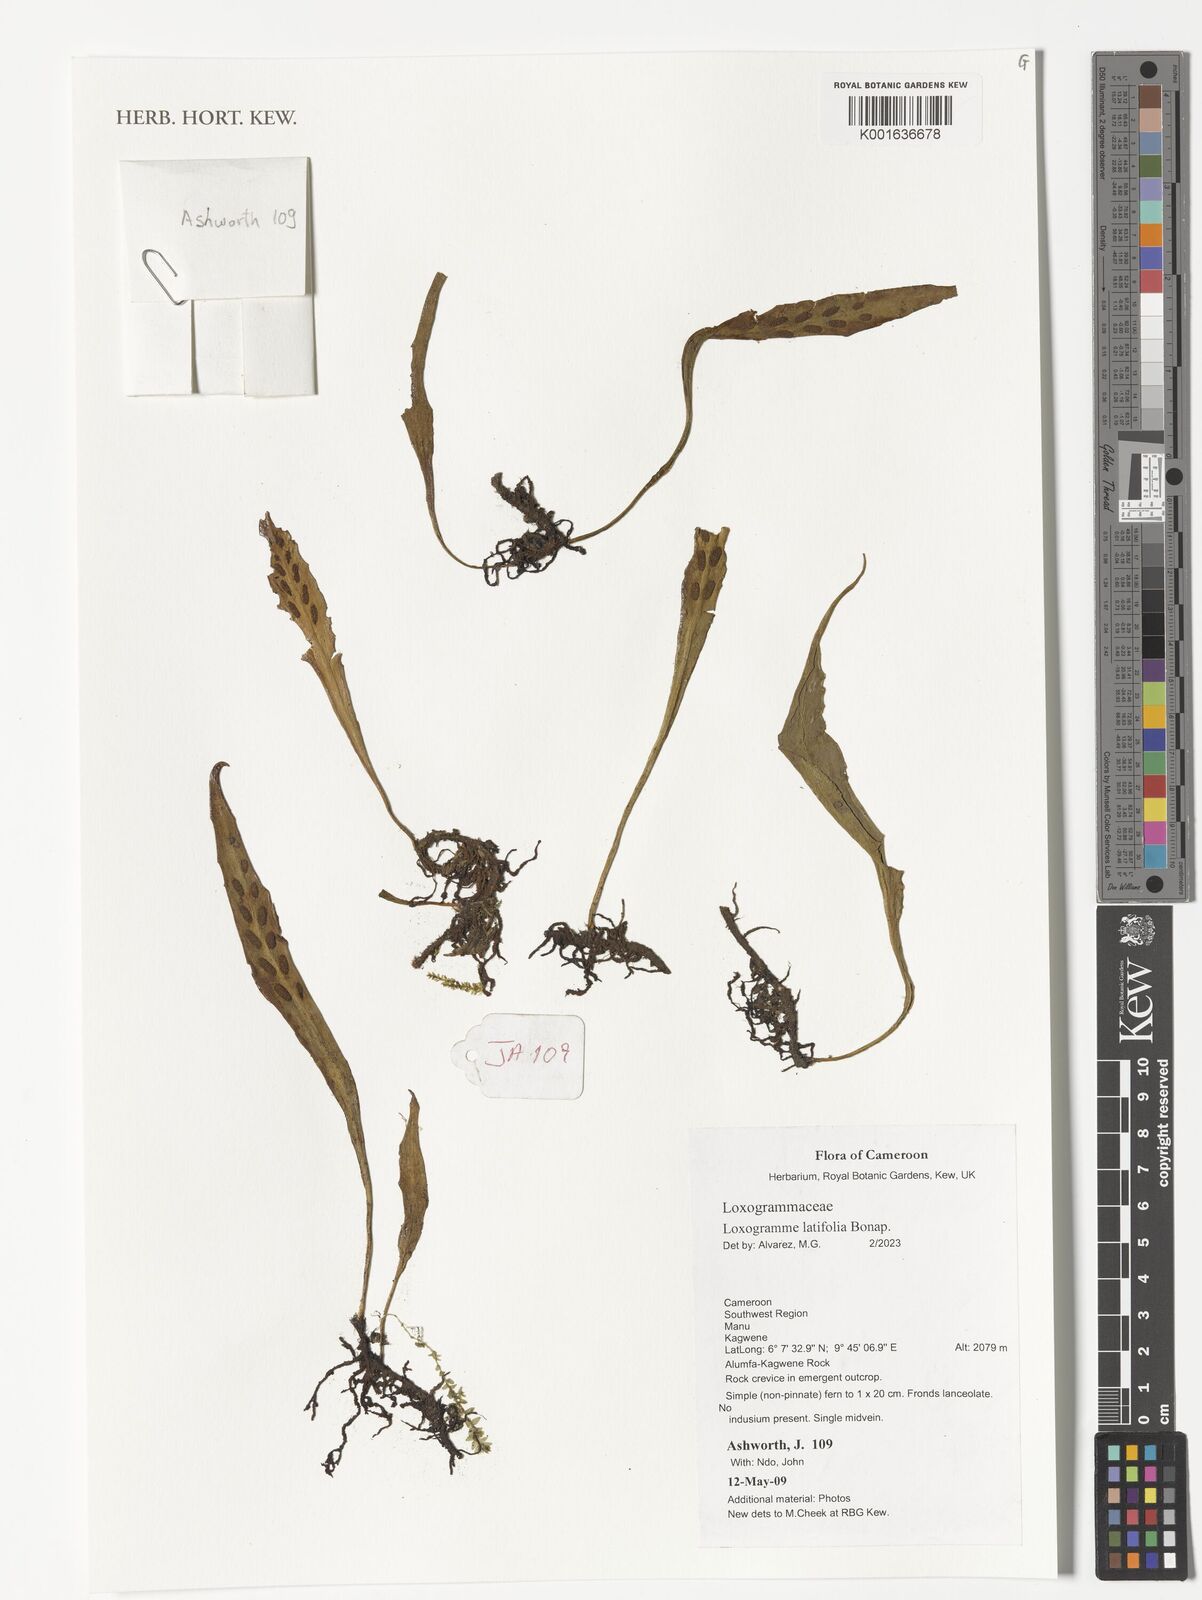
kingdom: Plantae
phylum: Tracheophyta
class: Polypodiopsida
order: Polypodiales
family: Polypodiaceae
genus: Loxogramme
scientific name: Loxogramme latifolia
